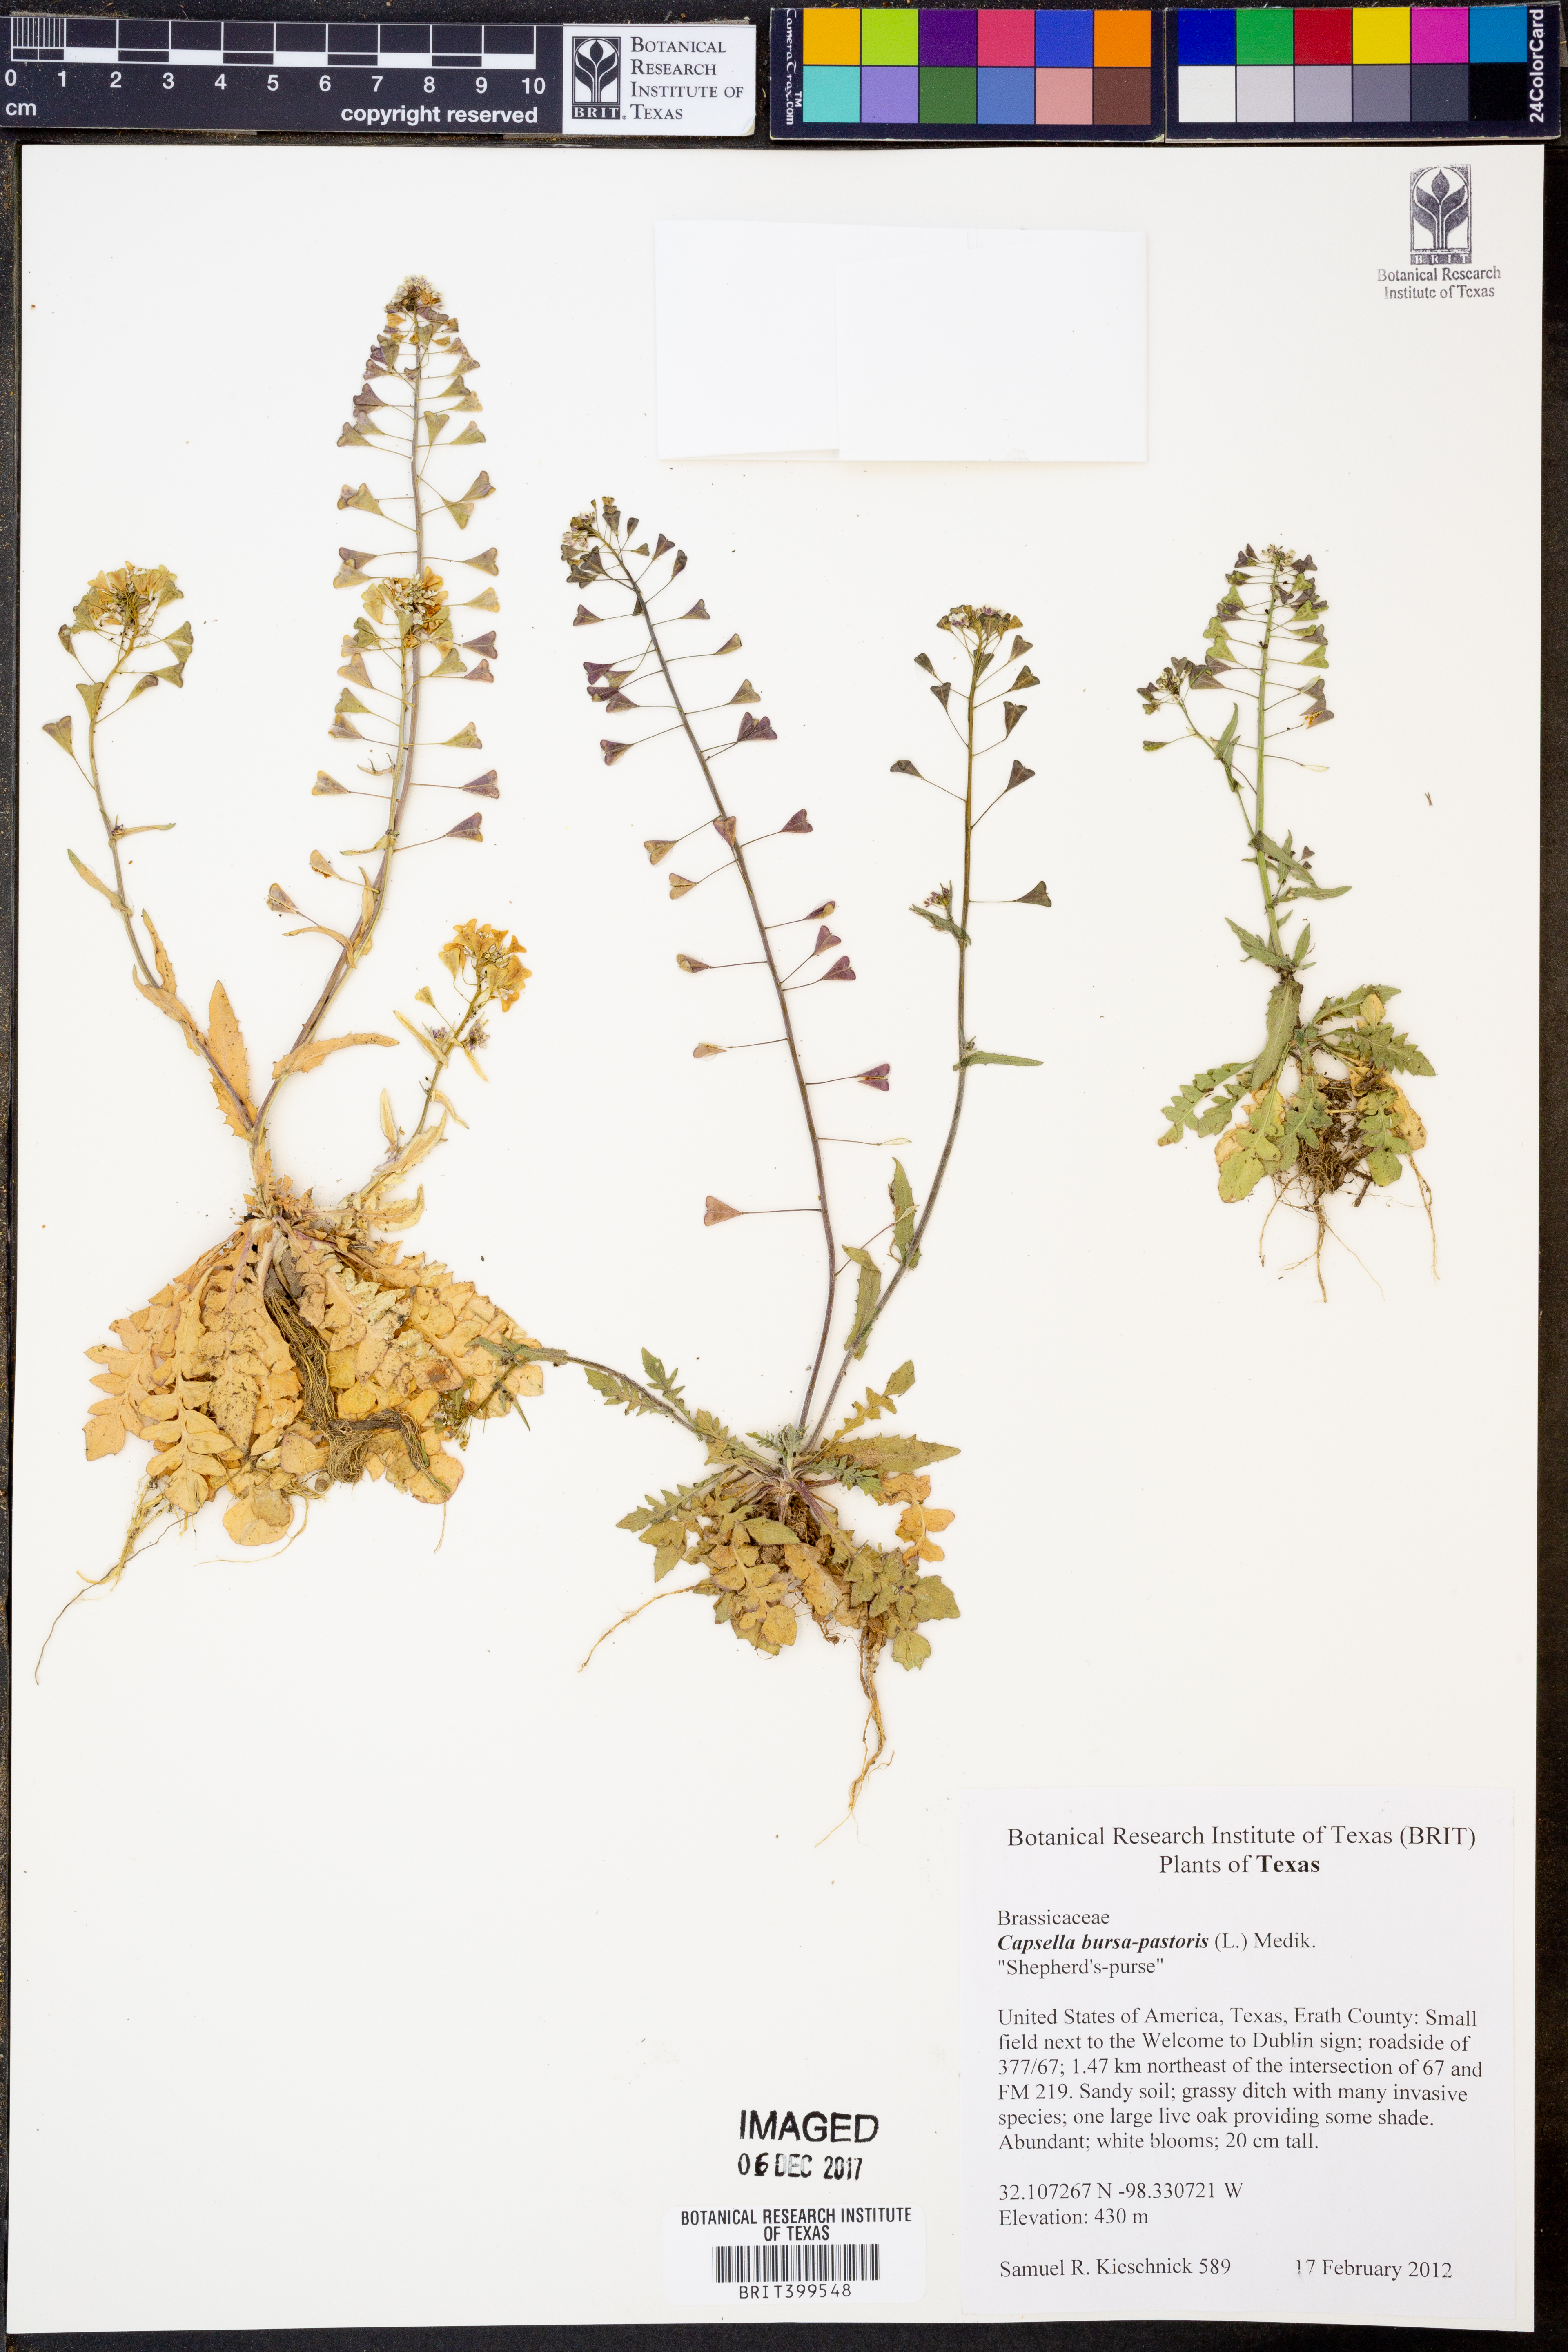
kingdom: Plantae
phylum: Tracheophyta
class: Magnoliopsida
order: Brassicales
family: Brassicaceae
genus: Capsella
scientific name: Capsella bursa-pastoris
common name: Shepherd's purse
